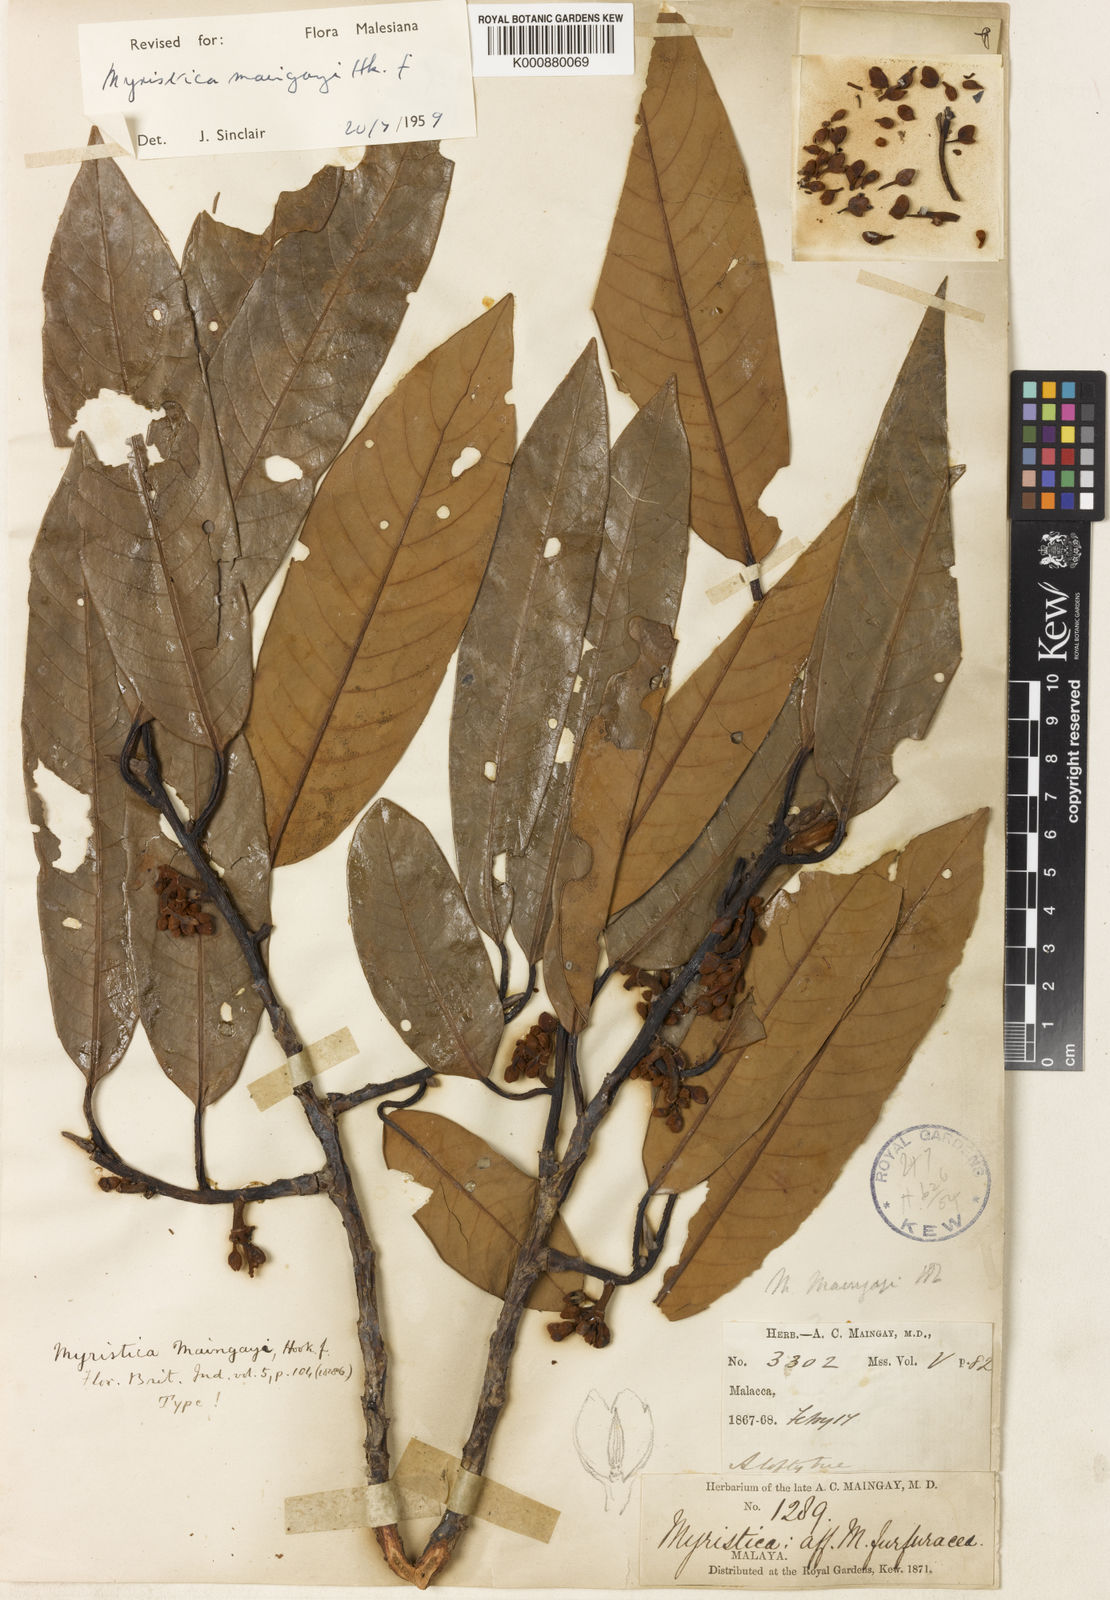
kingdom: Plantae
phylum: Tracheophyta
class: Magnoliopsida
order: Magnoliales
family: Myristicaceae
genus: Myristica
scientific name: Myristica maingayi
